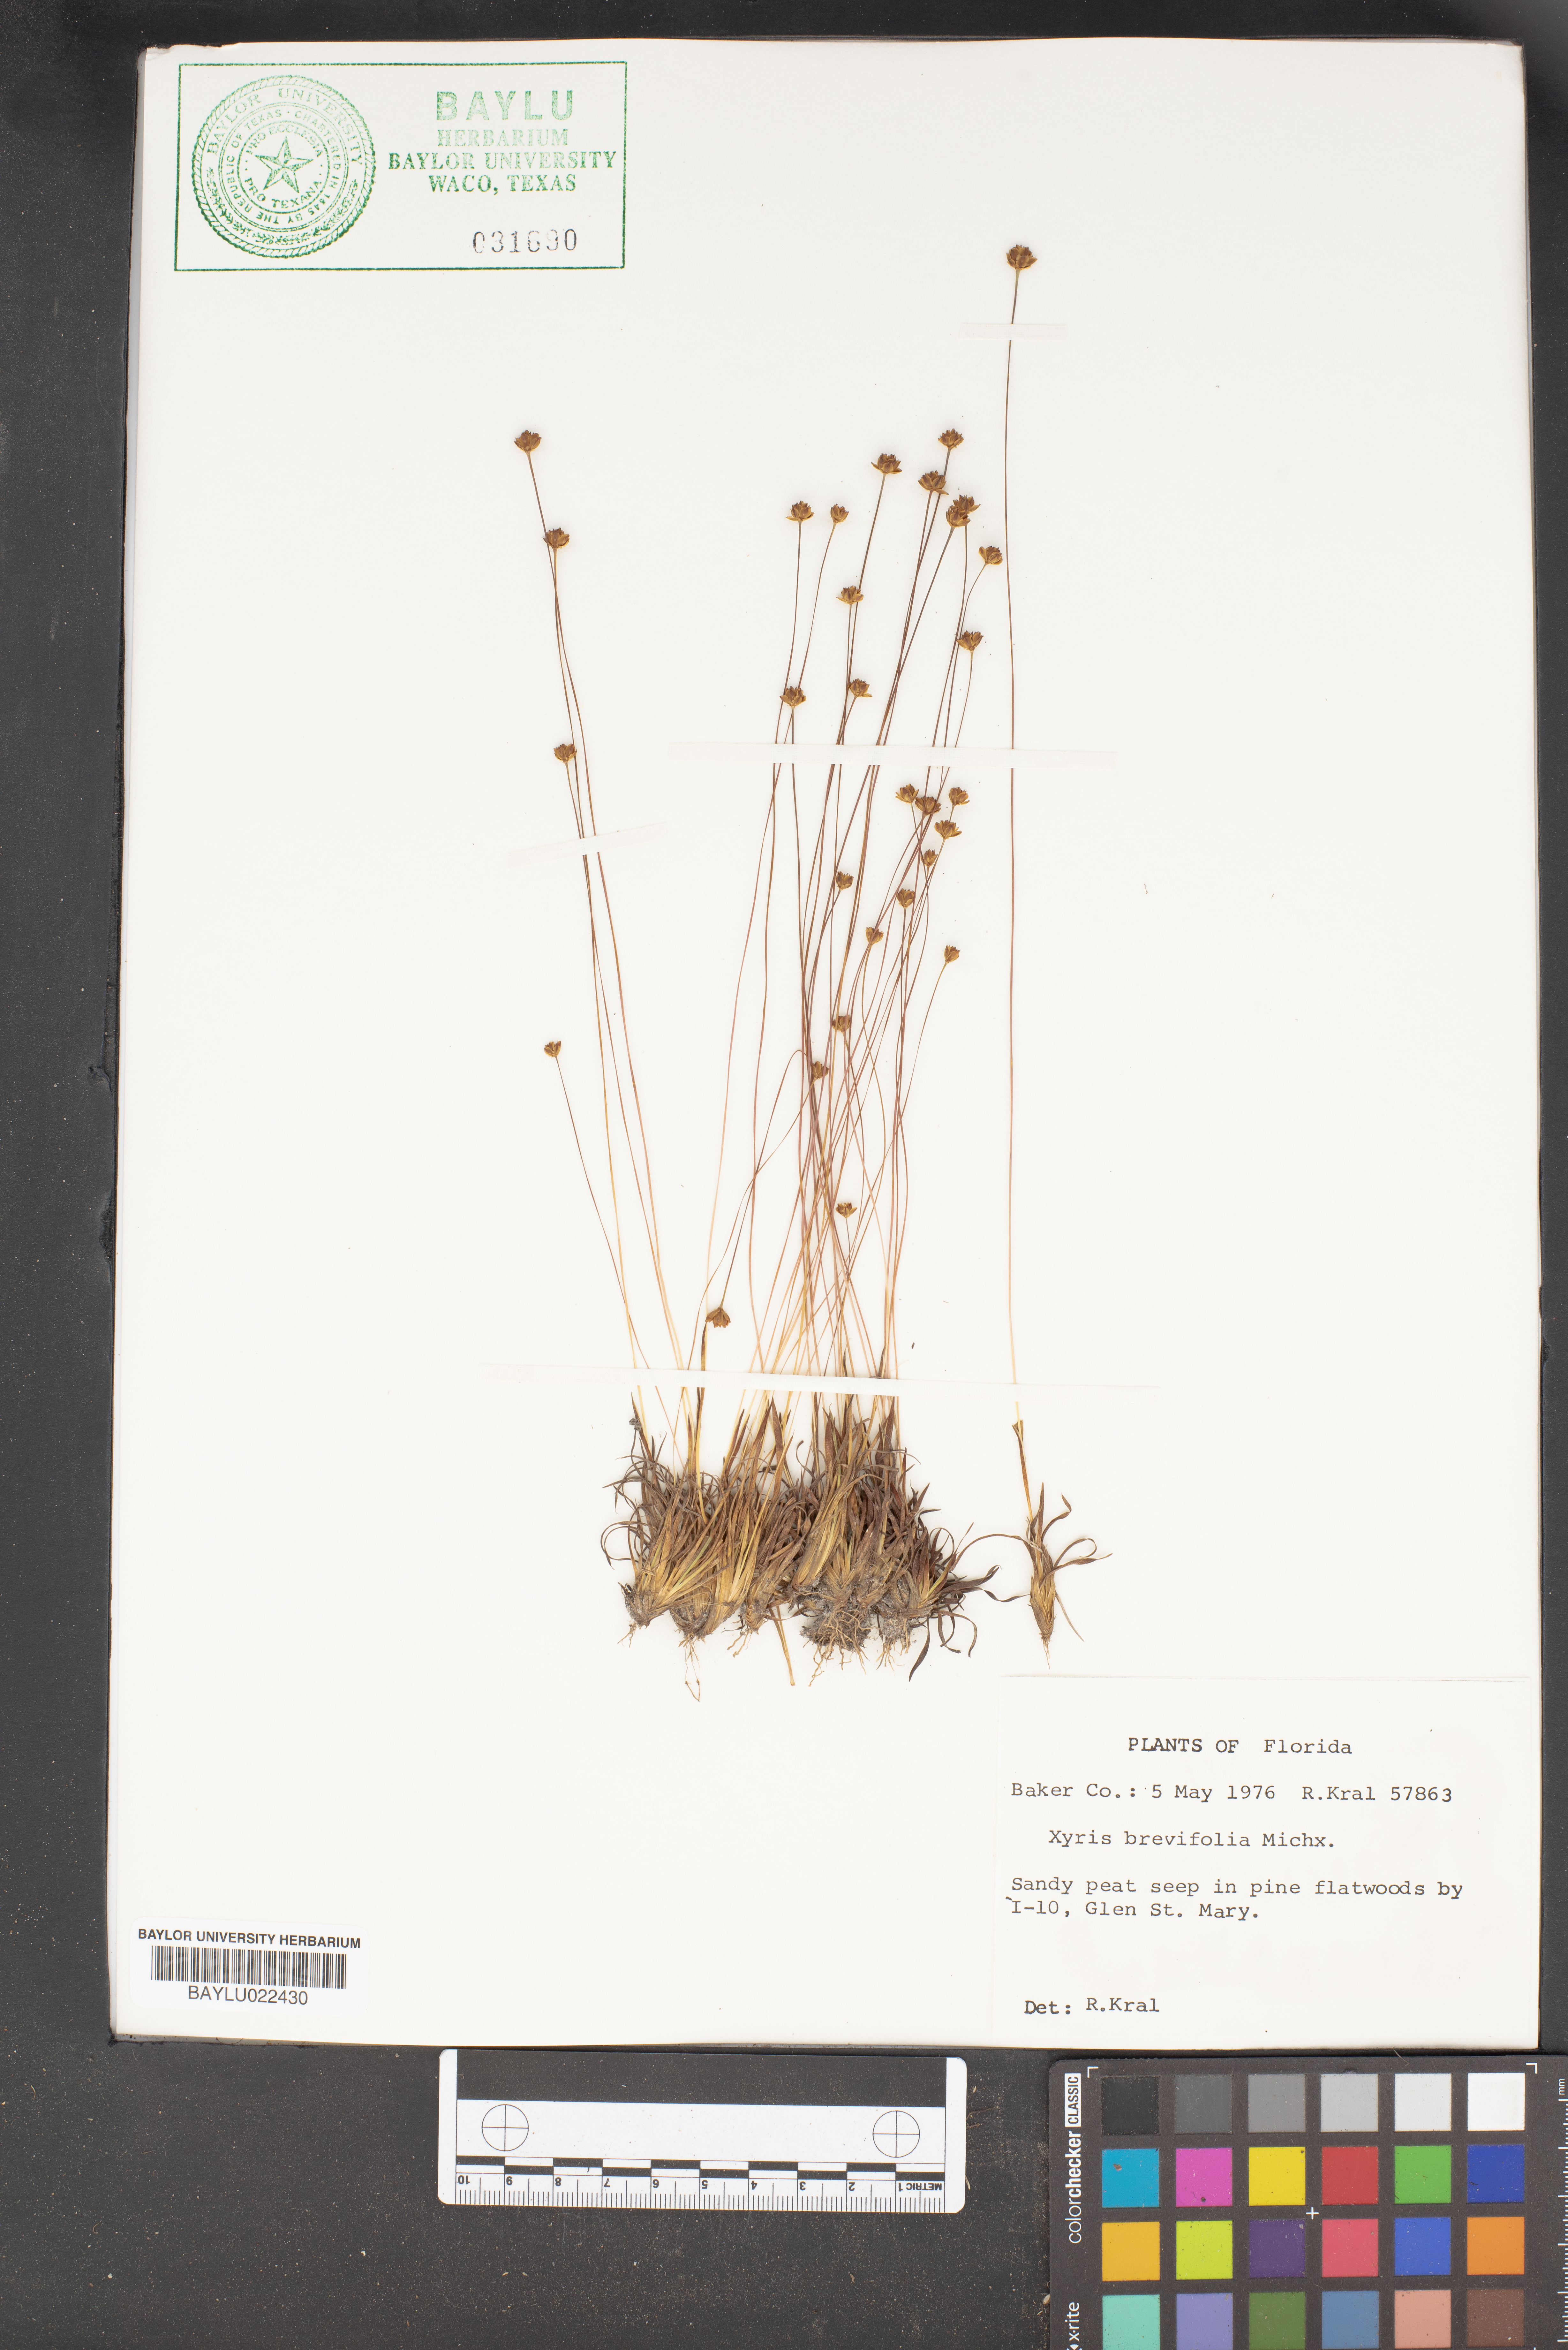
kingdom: Plantae
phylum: Tracheophyta
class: Liliopsida
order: Poales
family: Xyridaceae
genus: Xyris
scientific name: Xyris brevifolia
